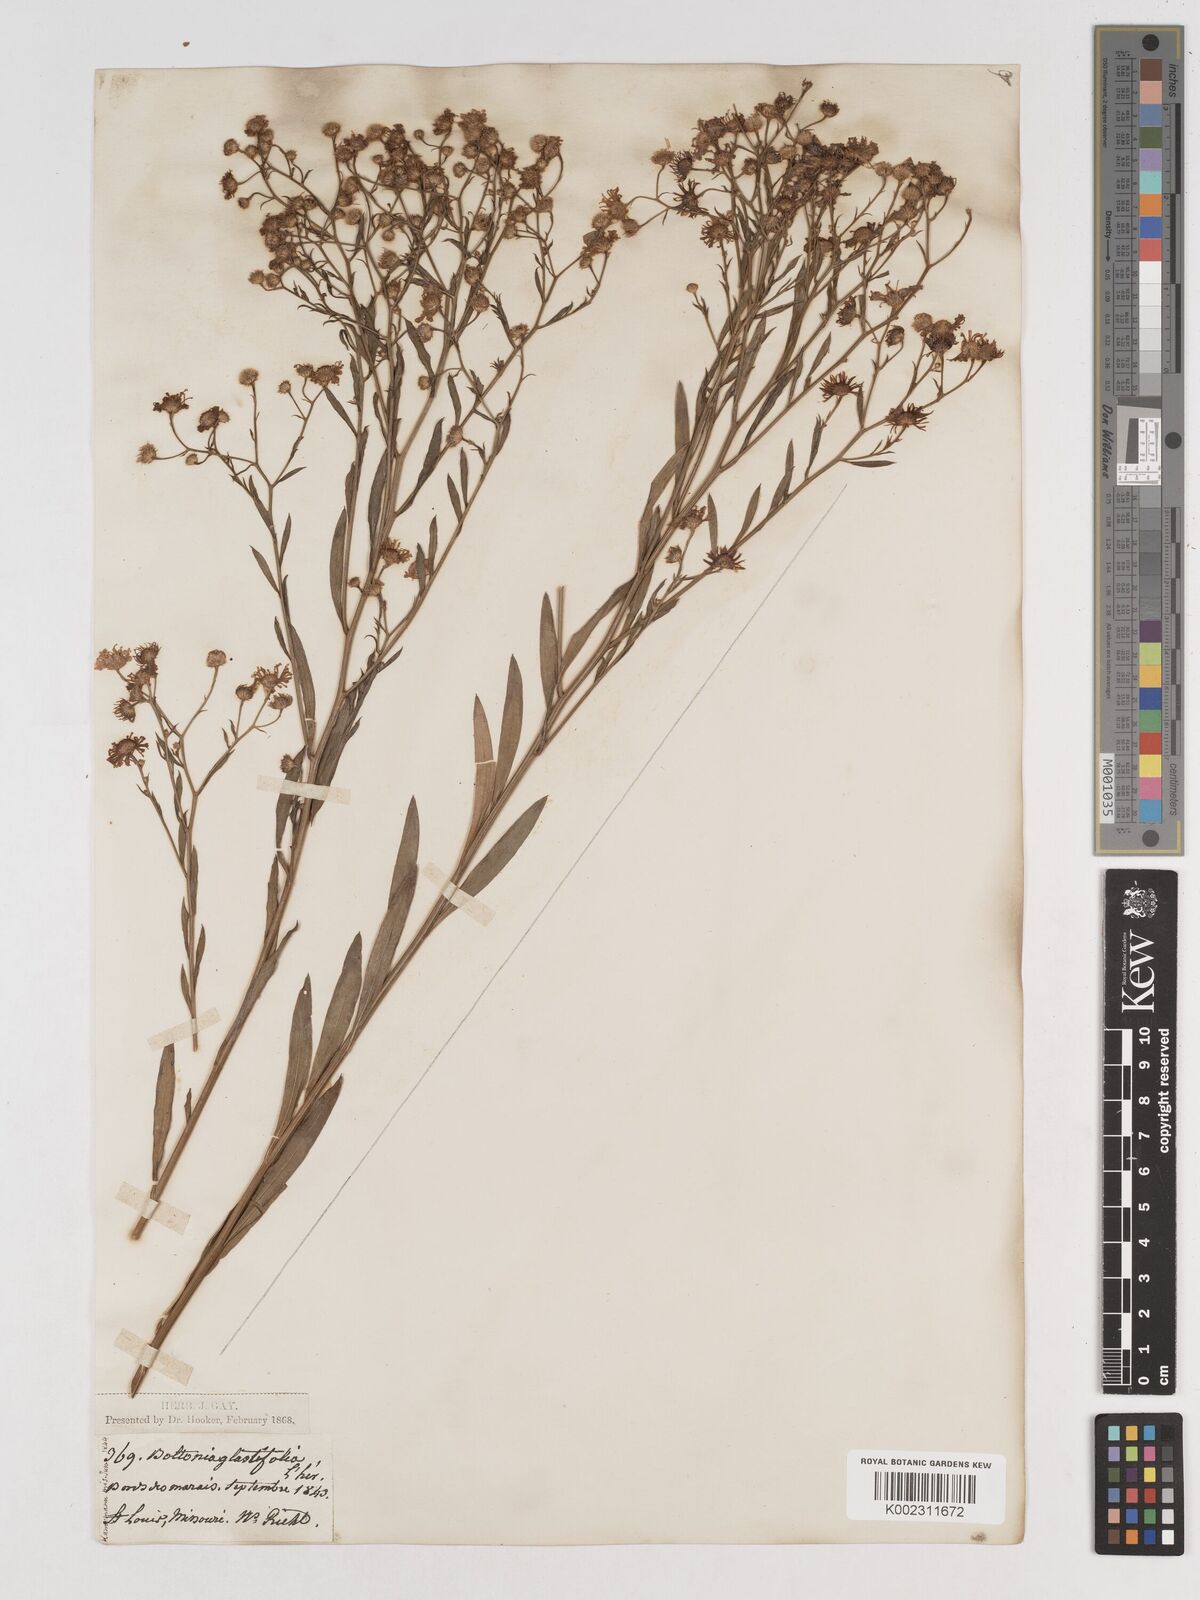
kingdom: Plantae
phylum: Tracheophyta
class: Magnoliopsida
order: Asterales
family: Asteraceae
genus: Boltonia
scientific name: Boltonia glastifolia
